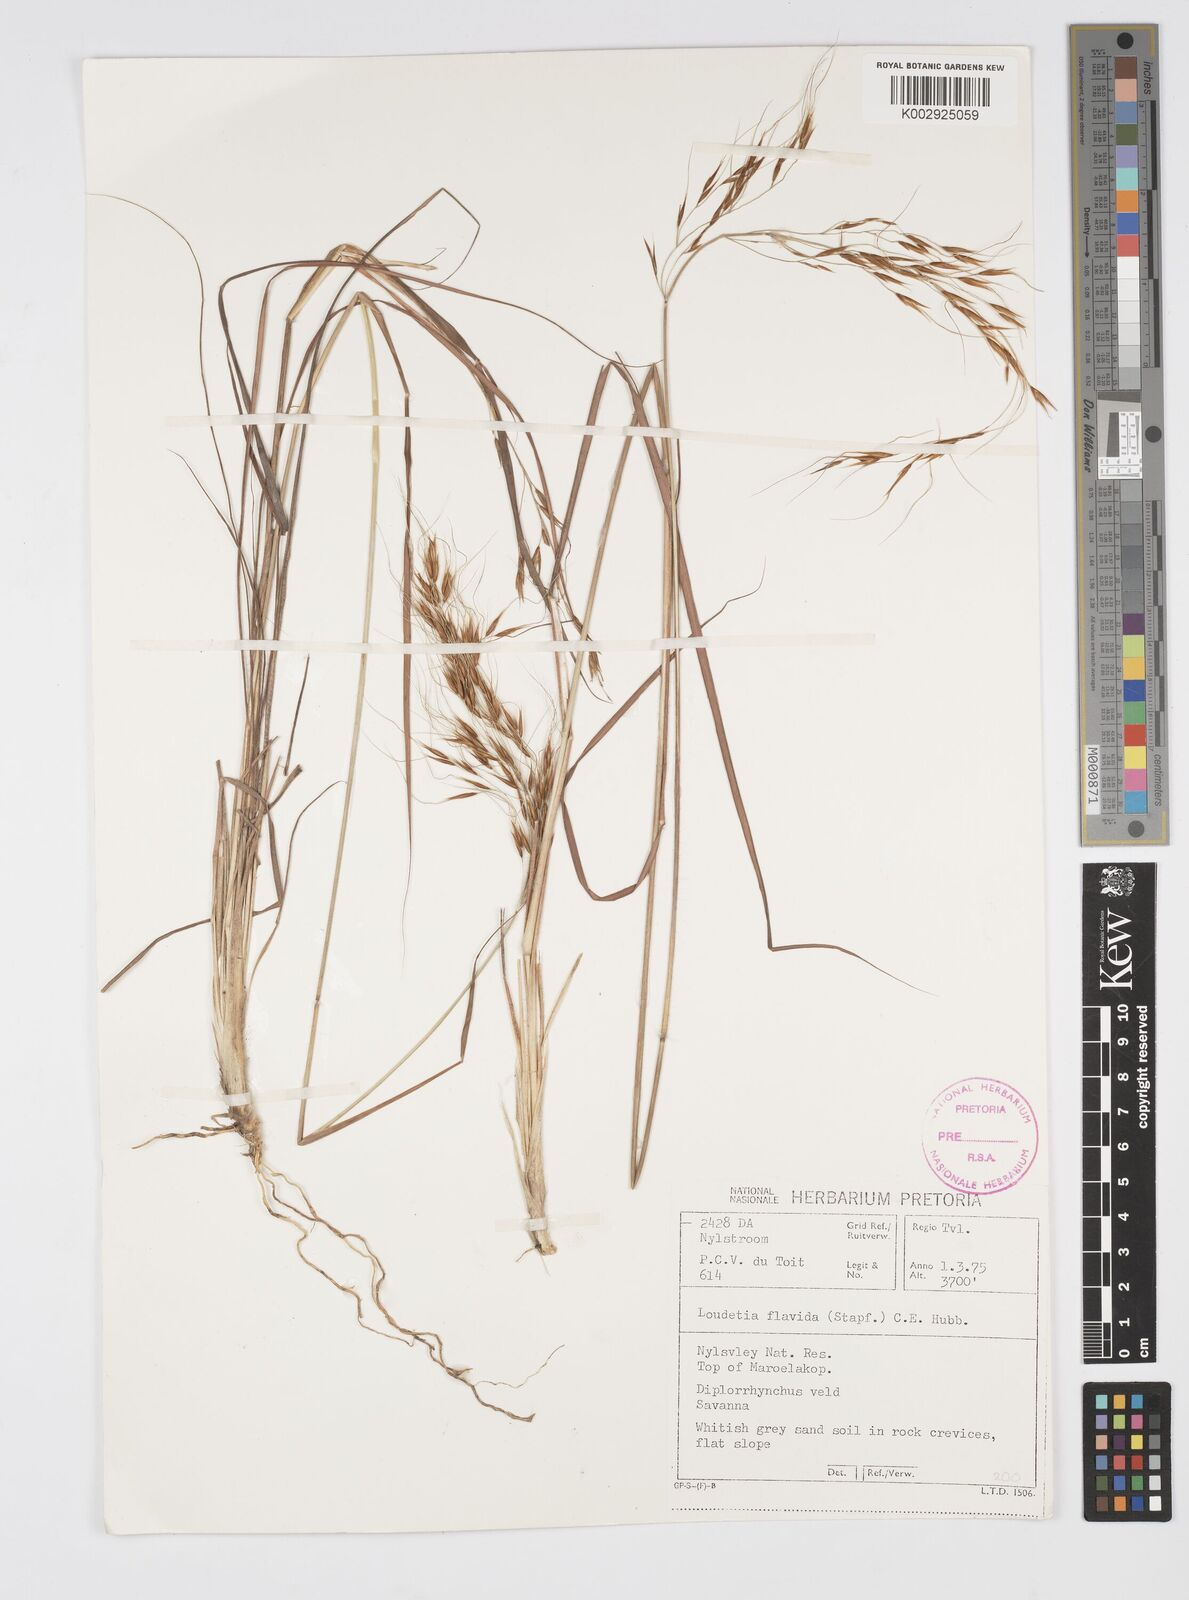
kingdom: Plantae
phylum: Tracheophyta
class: Liliopsida
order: Poales
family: Poaceae
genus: Loudetia
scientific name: Loudetia flavida
